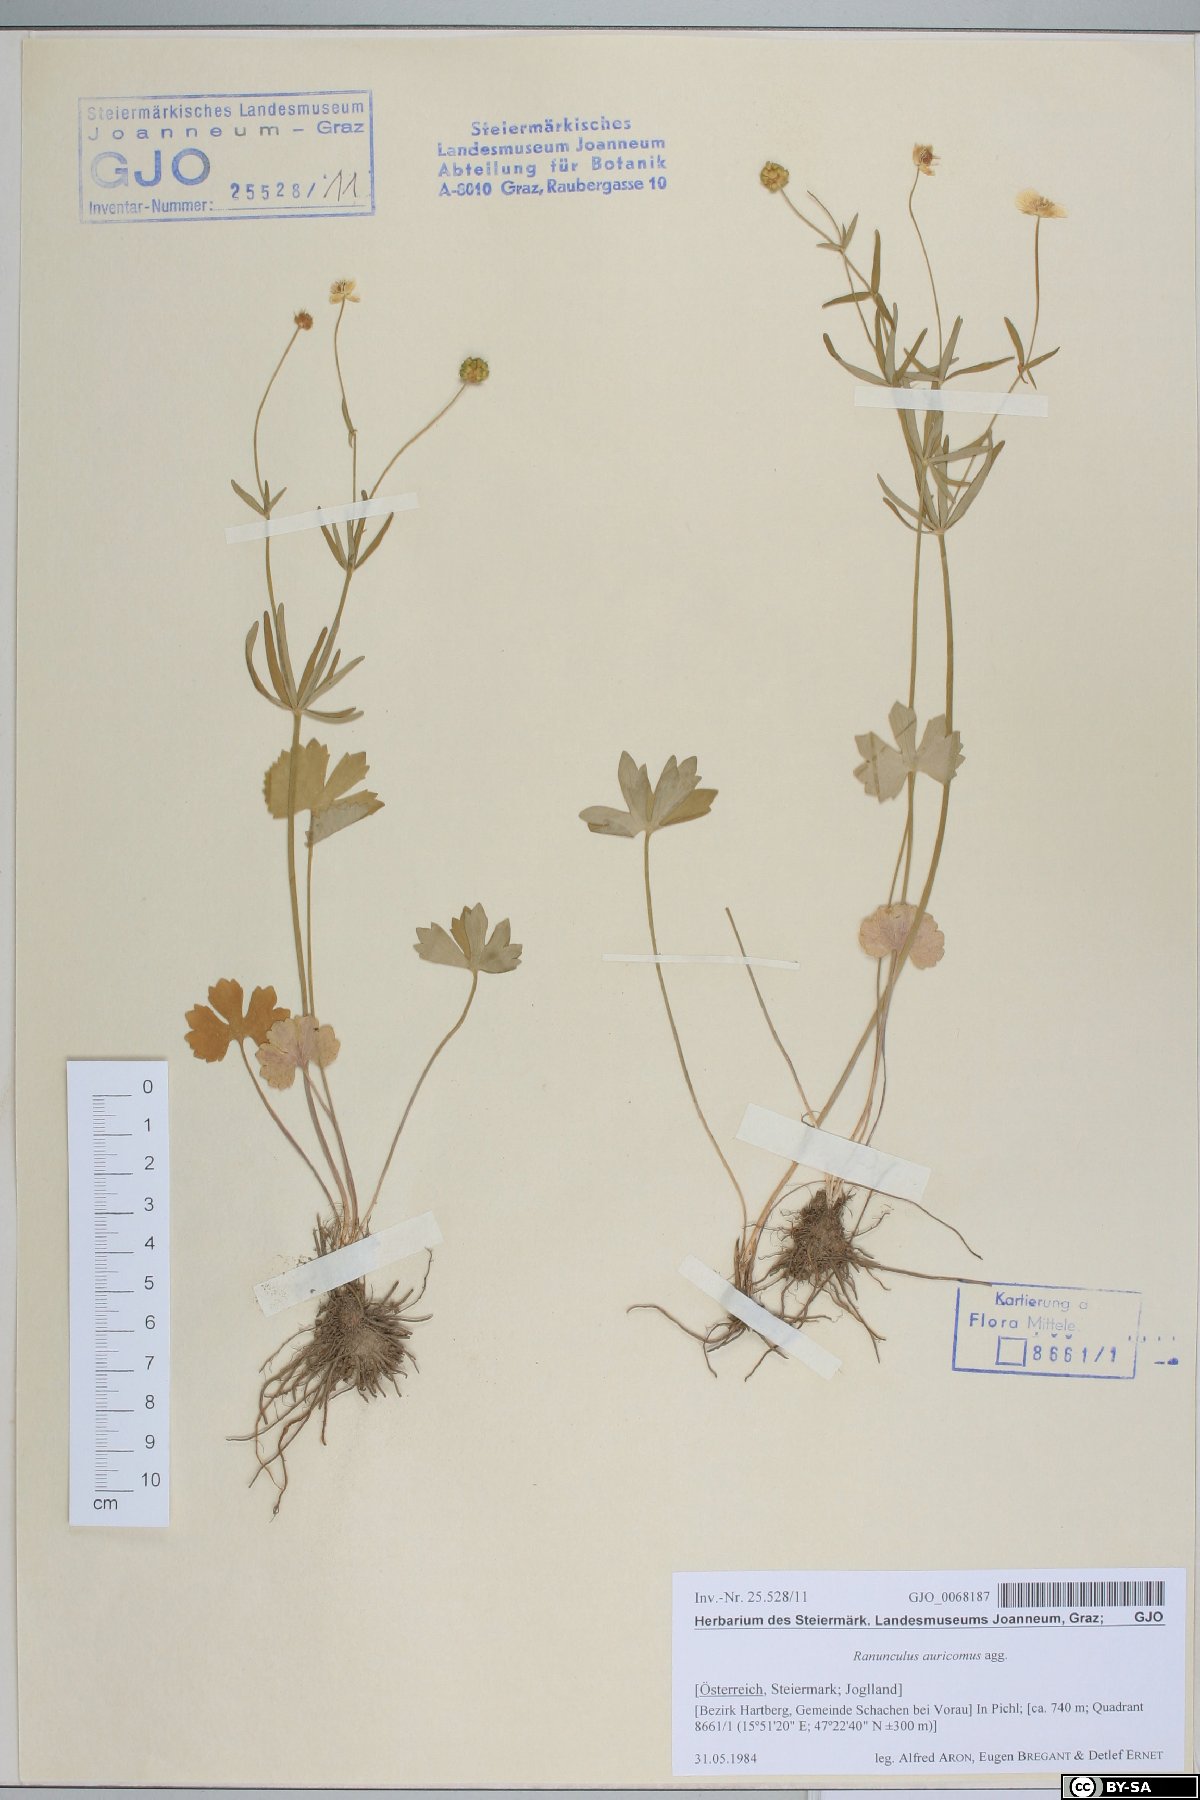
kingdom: Plantae
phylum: Tracheophyta
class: Magnoliopsida
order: Ranunculales
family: Ranunculaceae
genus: Ranunculus
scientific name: Ranunculus auricomus
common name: Goldilocks buttercup
